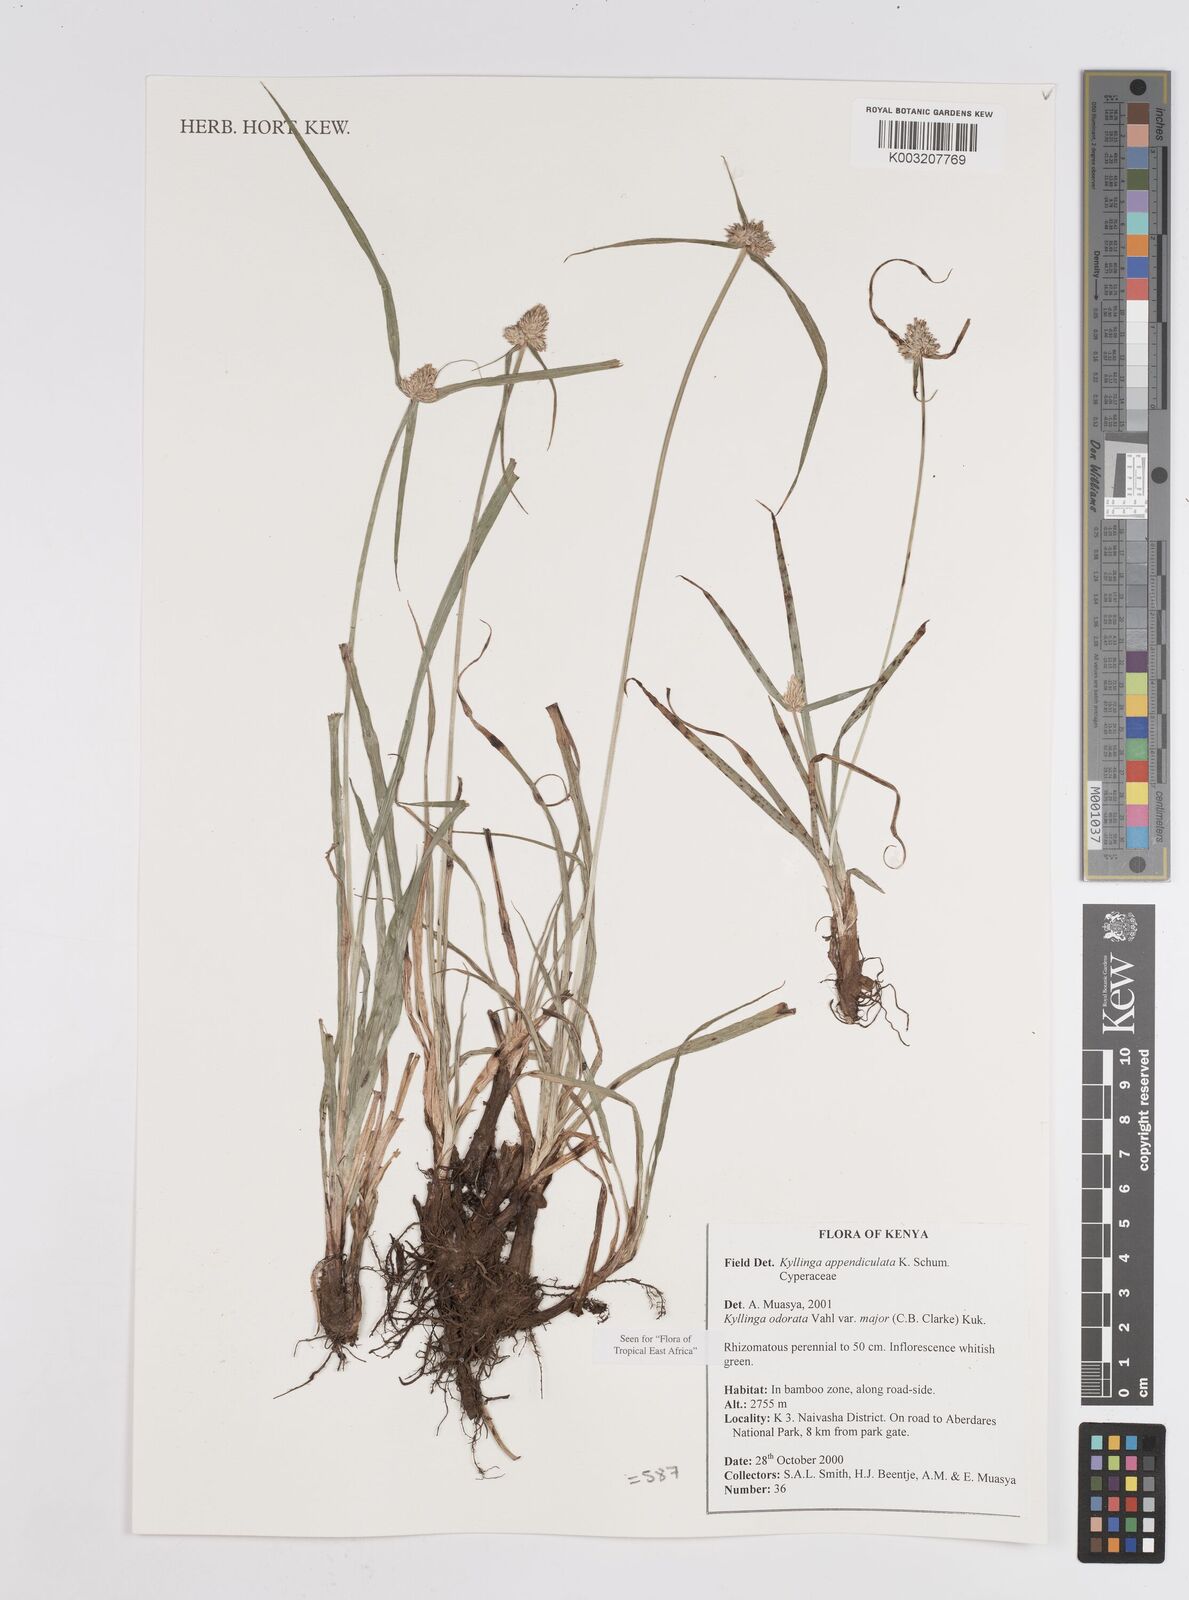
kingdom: Plantae
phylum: Tracheophyta
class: Liliopsida
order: Poales
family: Cyperaceae
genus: Cyperus
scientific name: Cyperus
